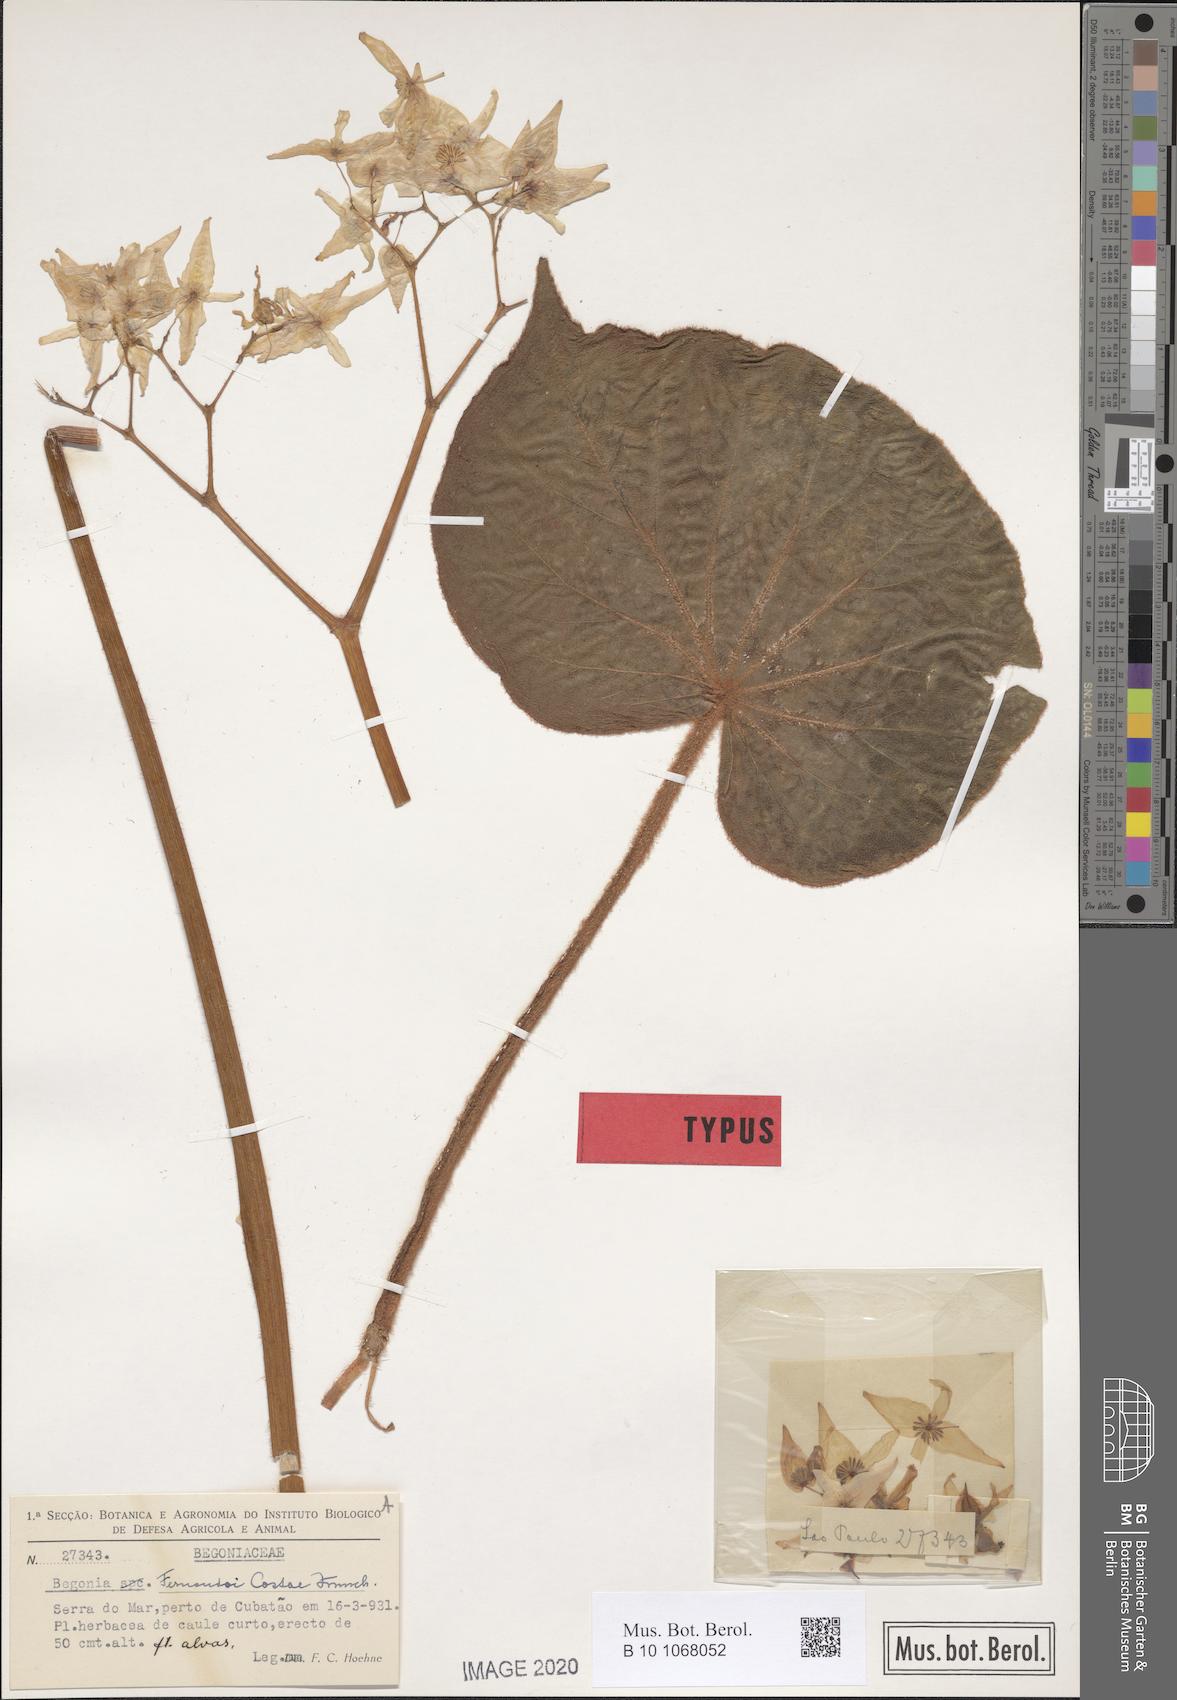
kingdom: Plantae
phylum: Tracheophyta
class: Magnoliopsida
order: Cucurbitales
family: Begoniaceae
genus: Begonia
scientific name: Begonia fernando-costae
